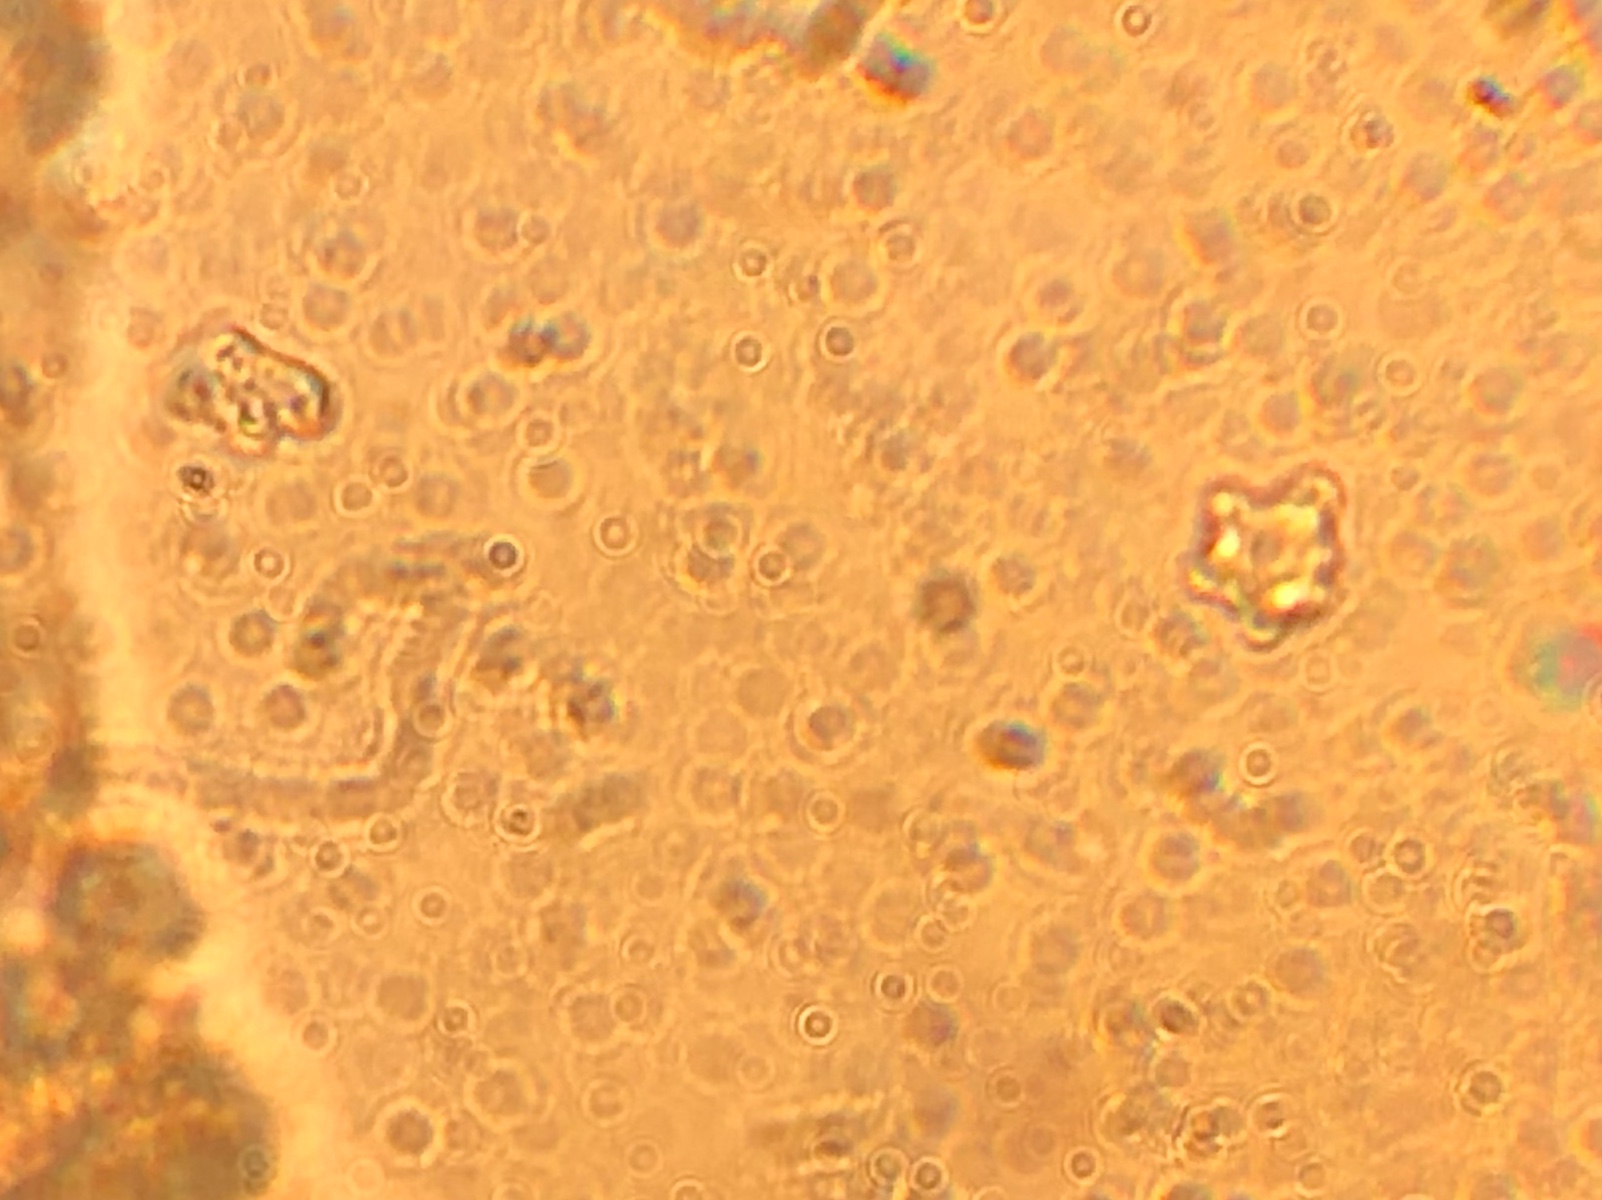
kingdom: Fungi
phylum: Basidiomycota
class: Agaricomycetes
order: Agaricales
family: Lyophyllaceae
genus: Sagaranella
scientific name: Sagaranella gibberosa
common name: pukkelsporet gråblad
